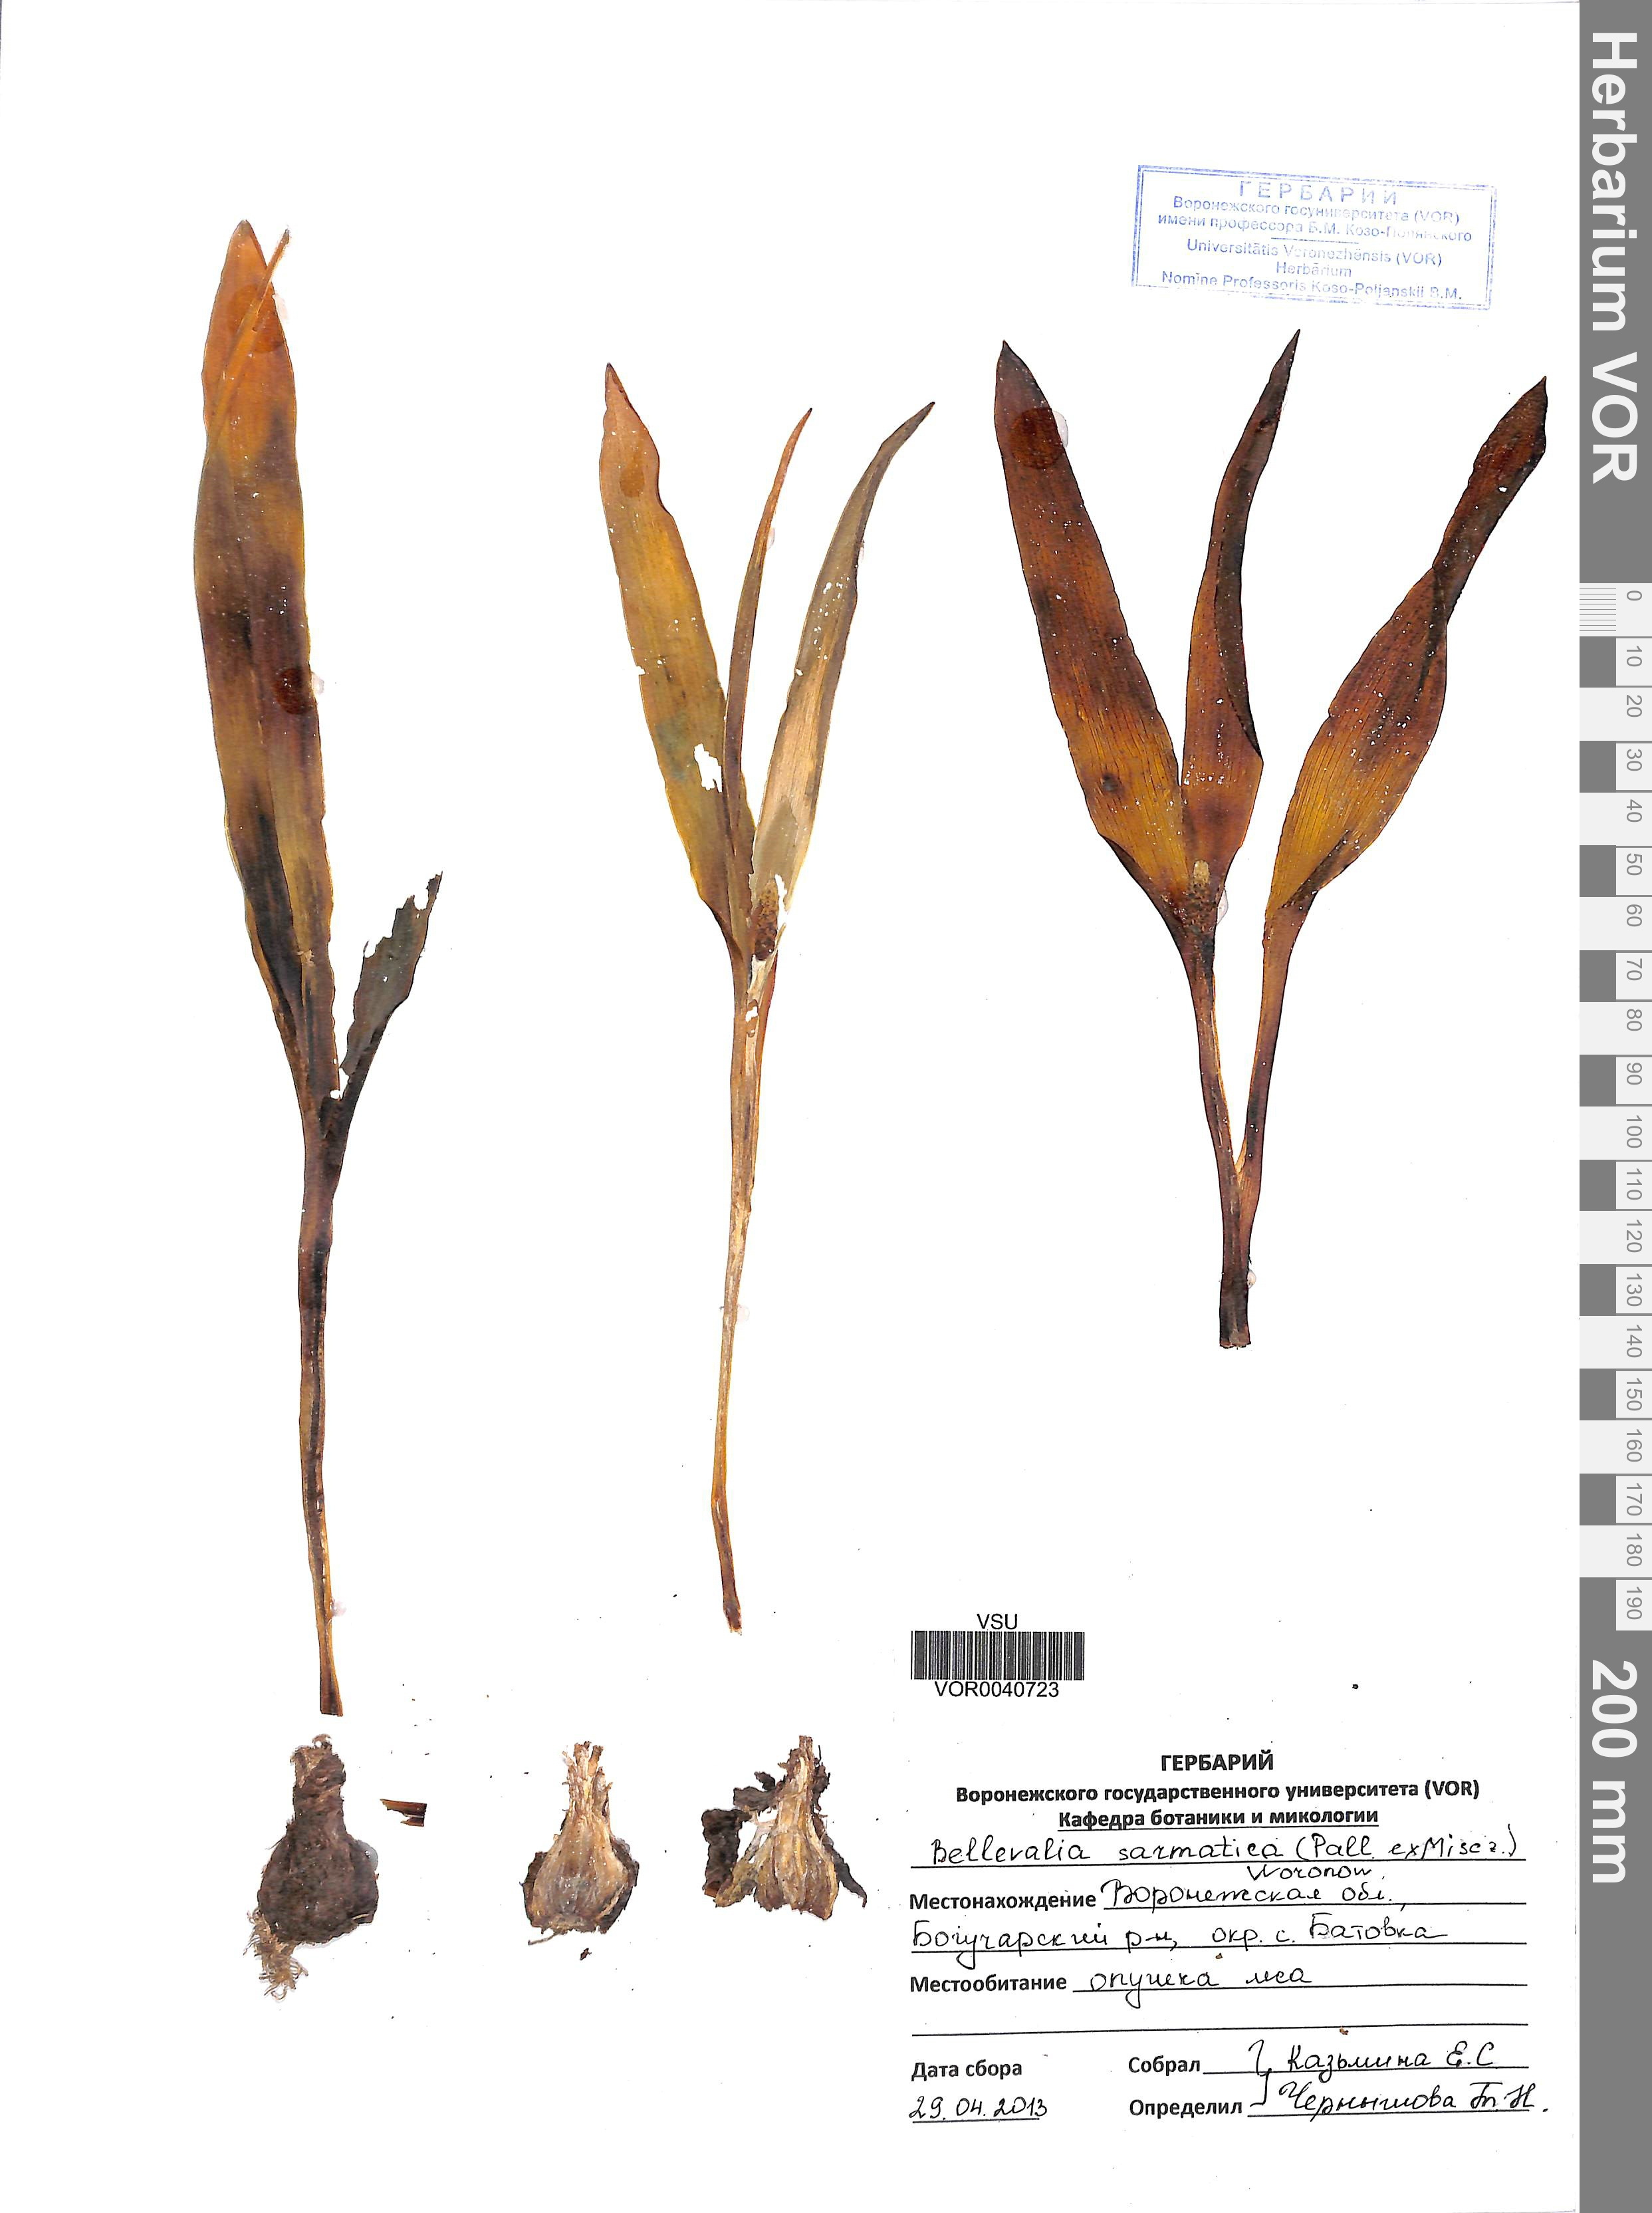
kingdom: Plantae
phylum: Tracheophyta
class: Liliopsida
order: Asparagales
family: Asparagaceae
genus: Bellevalia
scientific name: Bellevalia speciosa
